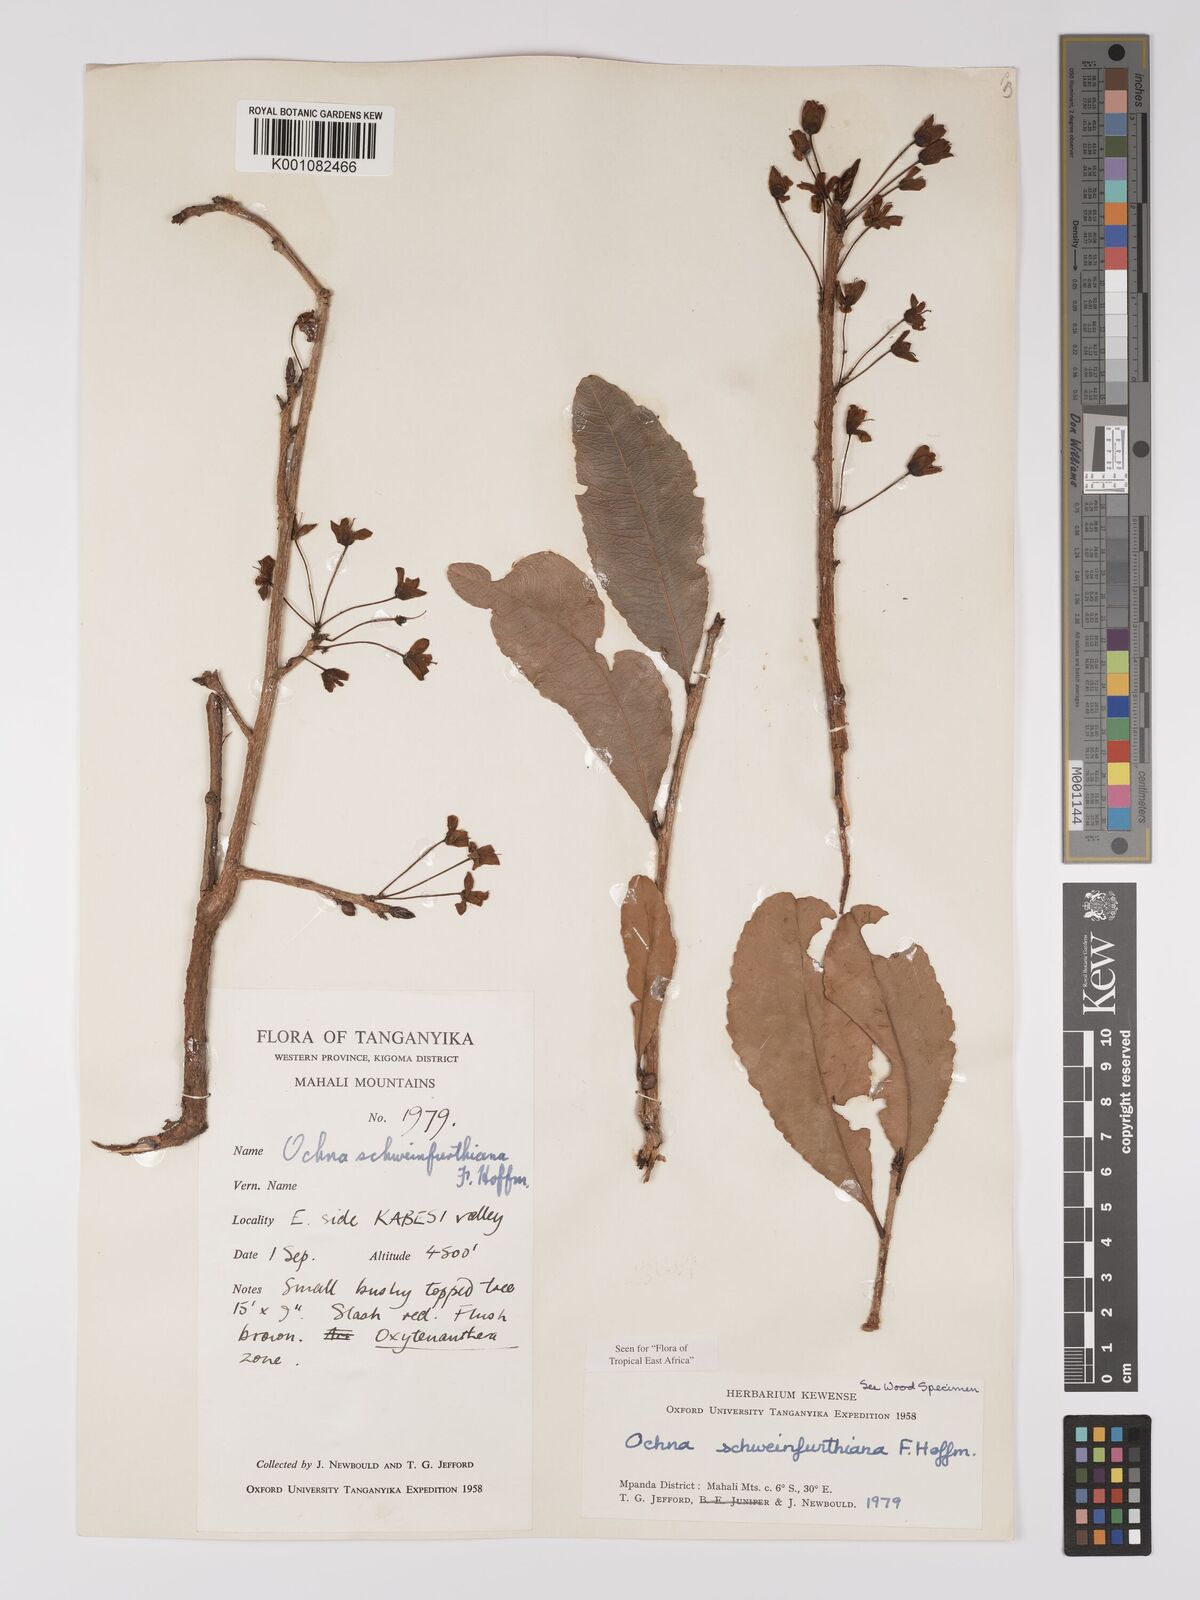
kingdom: Plantae
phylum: Tracheophyta
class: Magnoliopsida
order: Malpighiales
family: Ochnaceae
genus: Ochna
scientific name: Ochna schweinfurthiana
